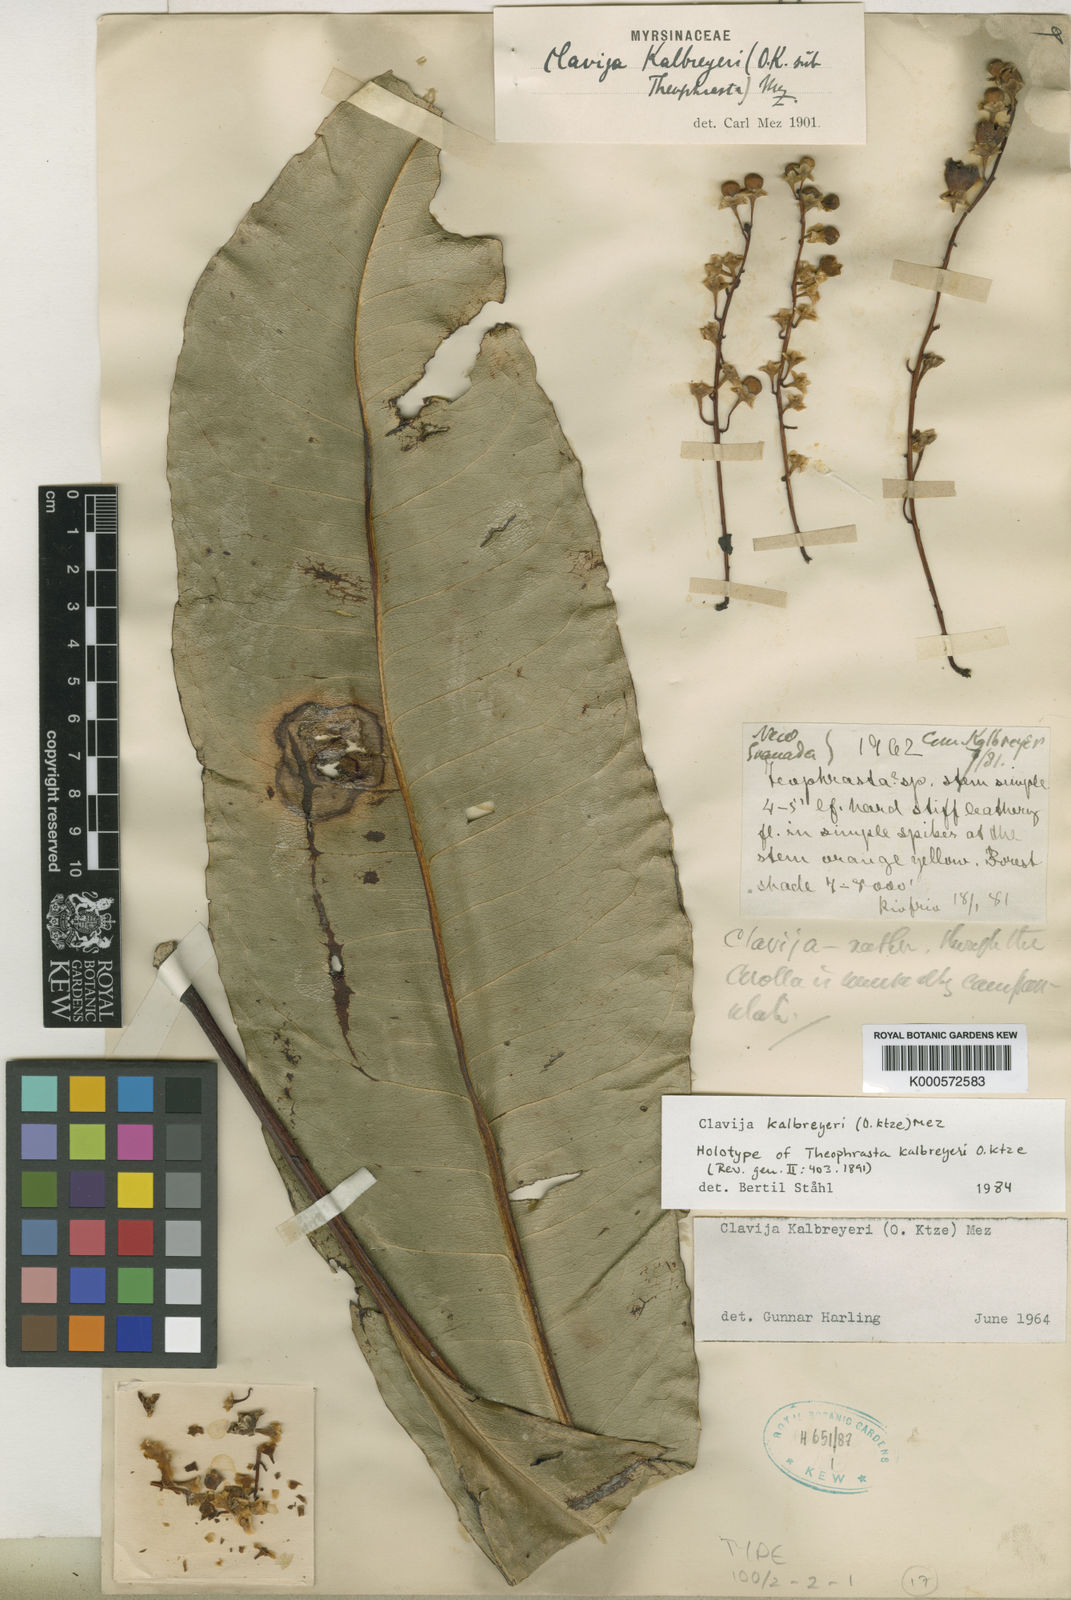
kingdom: Plantae
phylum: Tracheophyta
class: Magnoliopsida
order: Ericales
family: Primulaceae
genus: Clavija
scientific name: Clavija kalbreyeri
